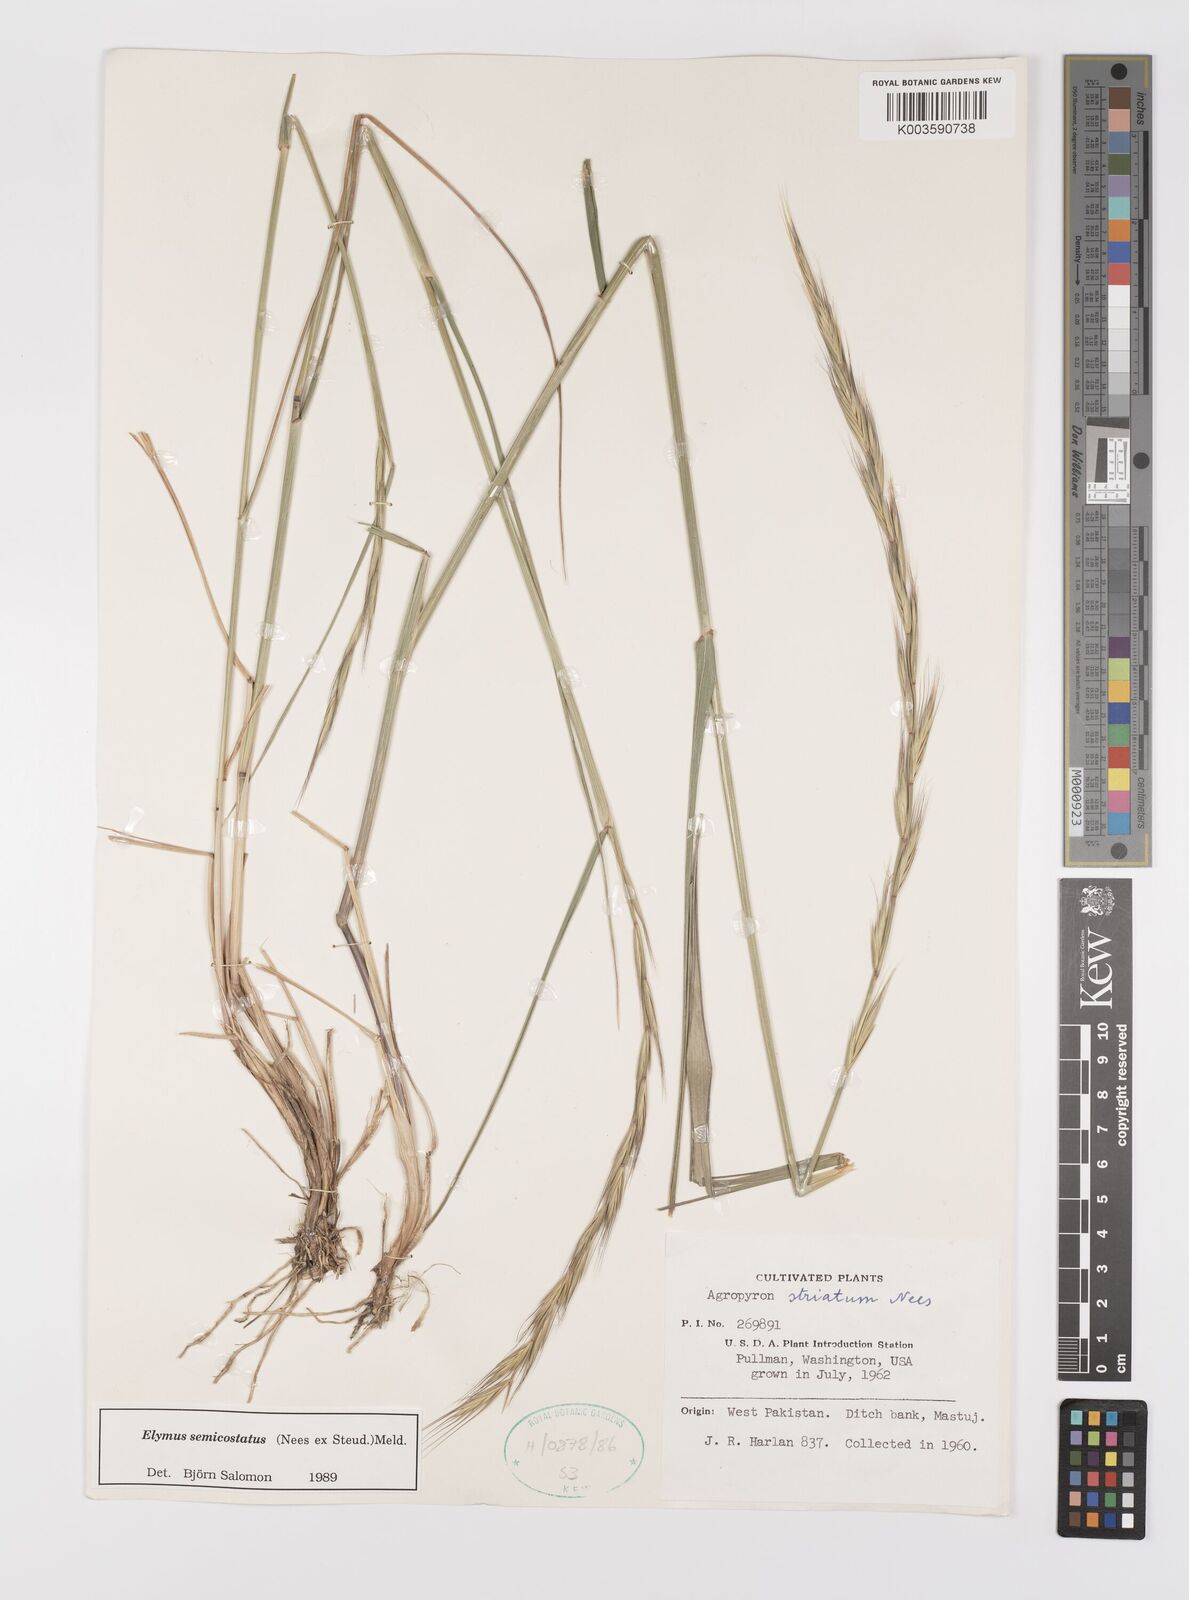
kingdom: Plantae
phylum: Tracheophyta
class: Liliopsida
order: Poales
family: Poaceae
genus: Elymus
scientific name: Elymus semicostatus
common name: Drooping wildrye
